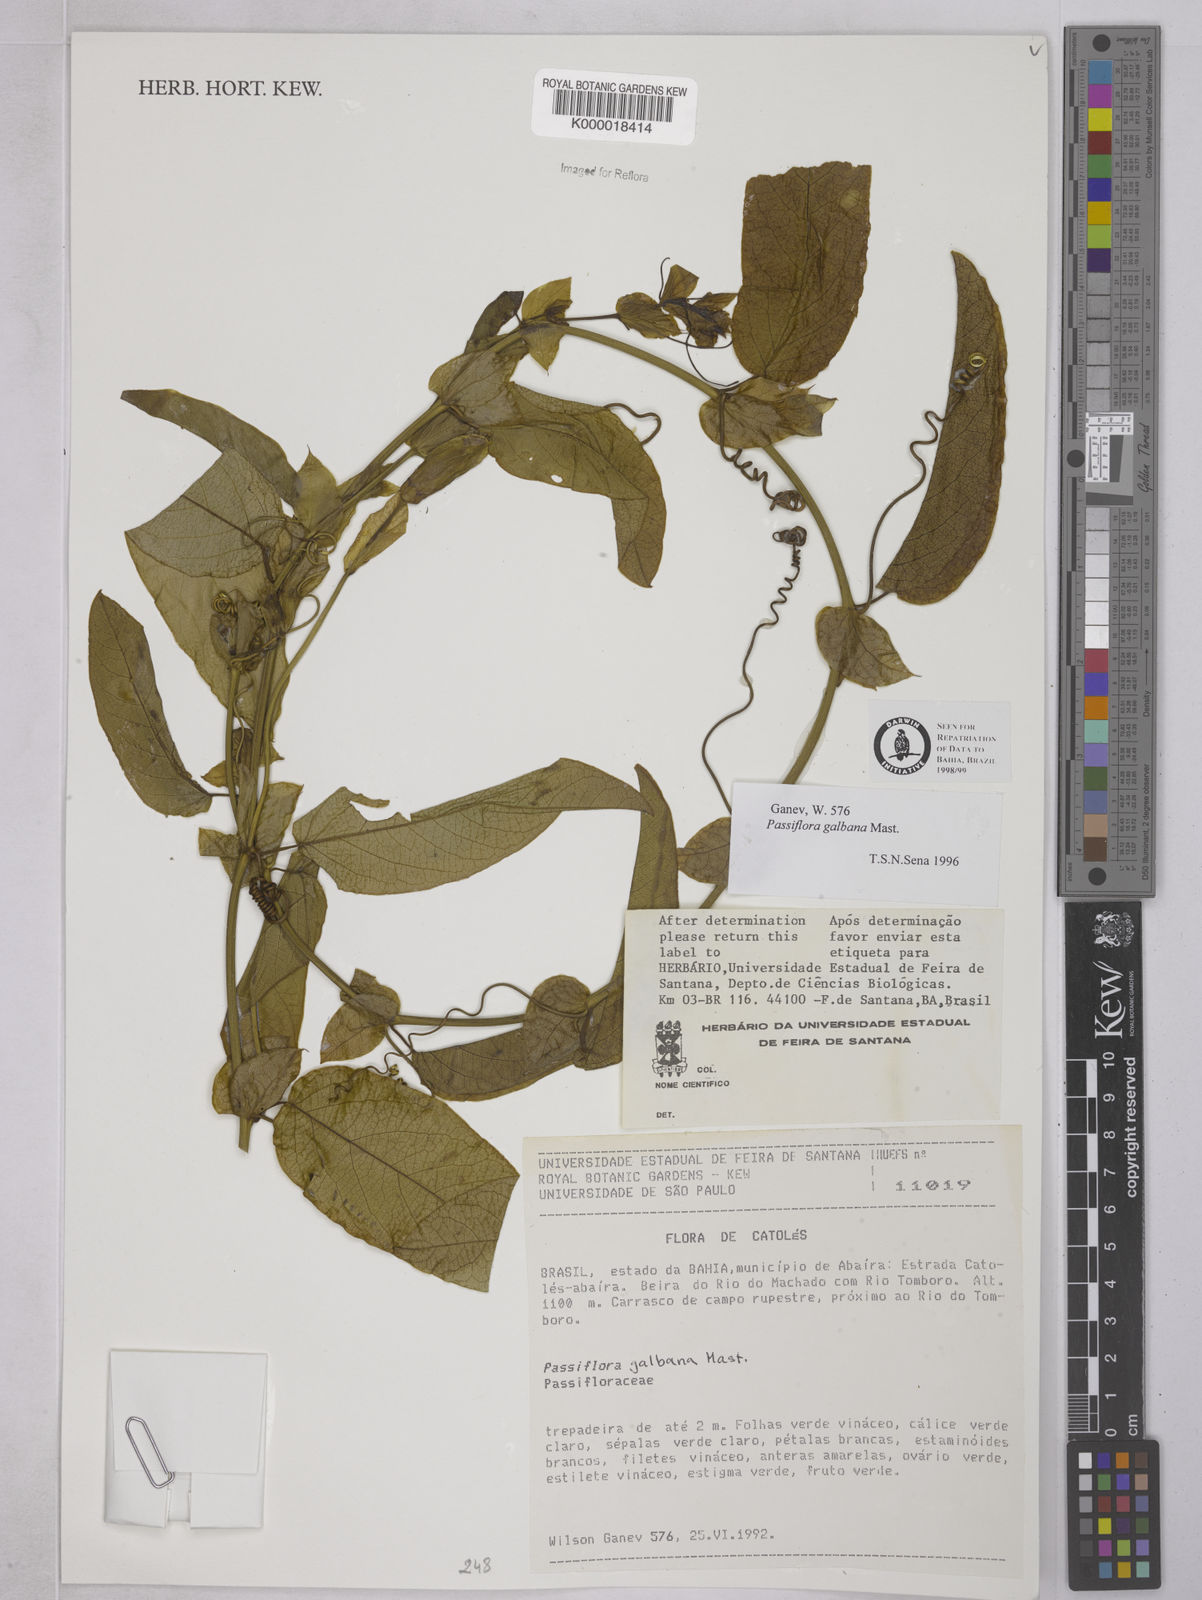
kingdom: Plantae
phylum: Tracheophyta
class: Magnoliopsida
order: Malpighiales
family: Passifloraceae
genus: Passiflora
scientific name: Passiflora silvestris
